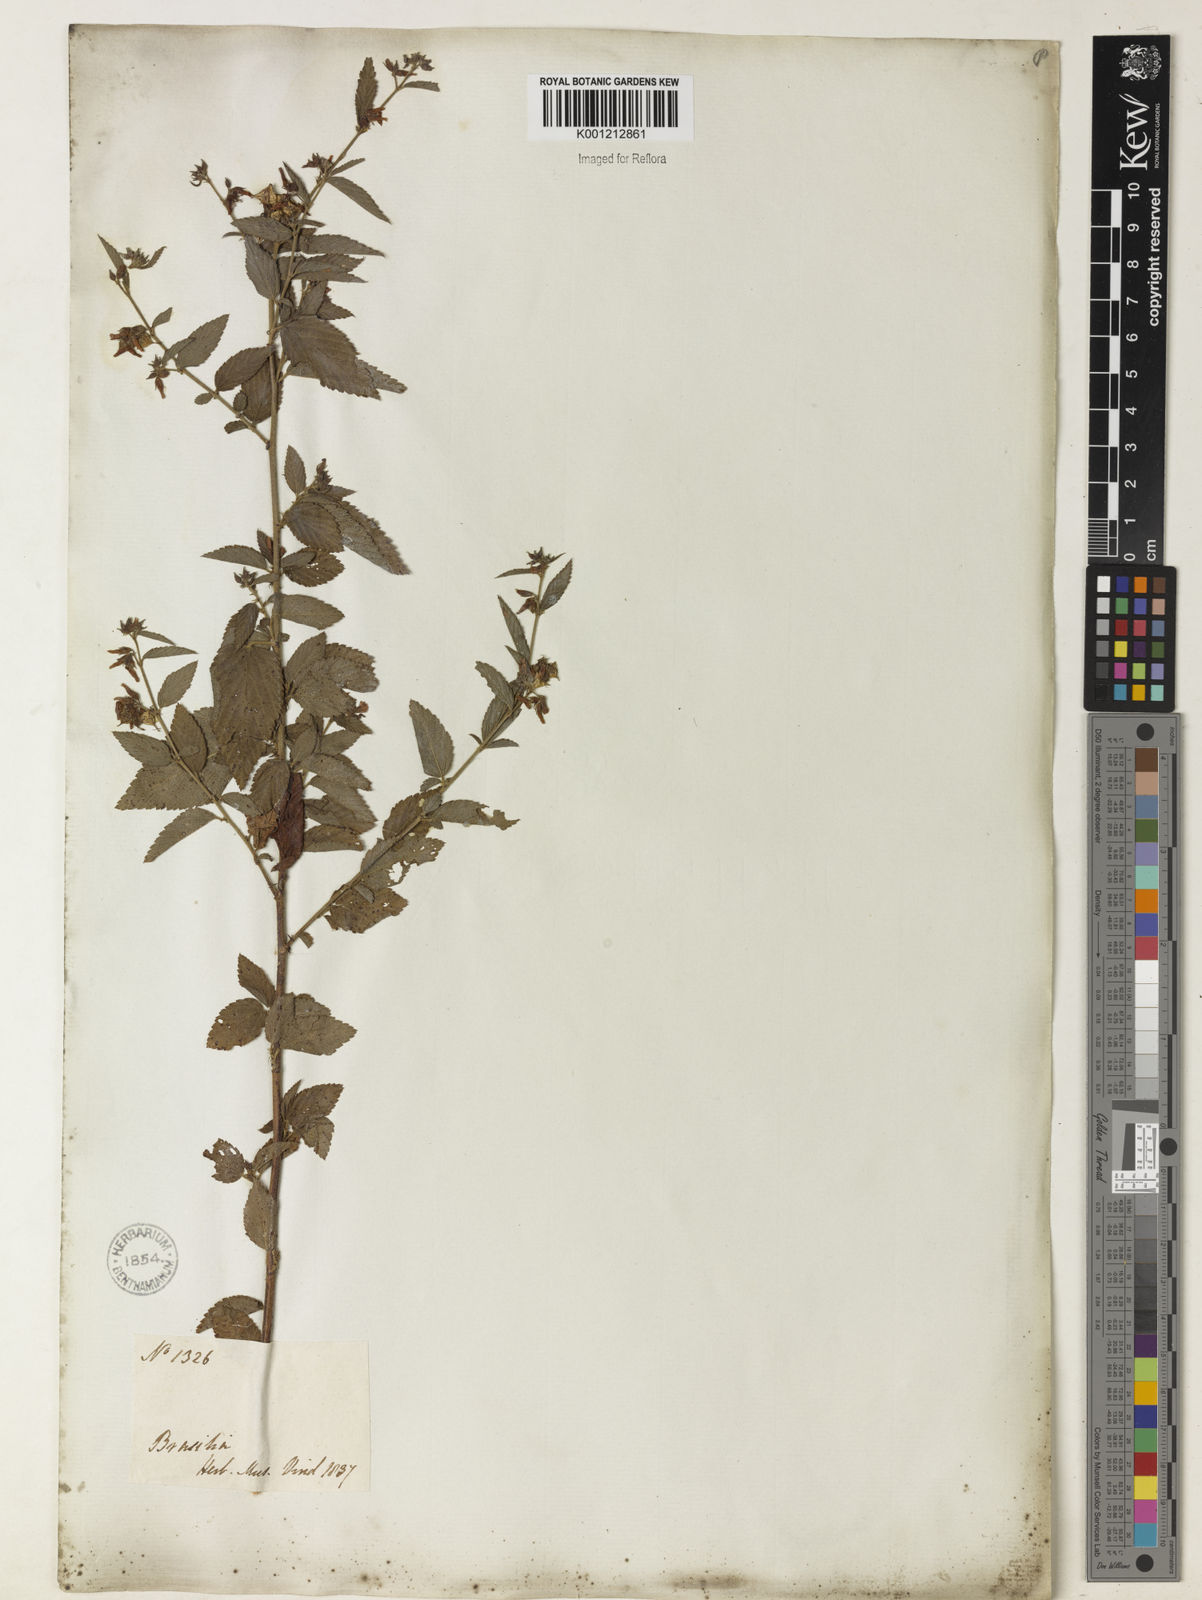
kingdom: Plantae
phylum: Tracheophyta
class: Magnoliopsida
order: Malvales
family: Malvaceae
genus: Melochia
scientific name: Melochia pyramidata
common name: Pyramidflower
